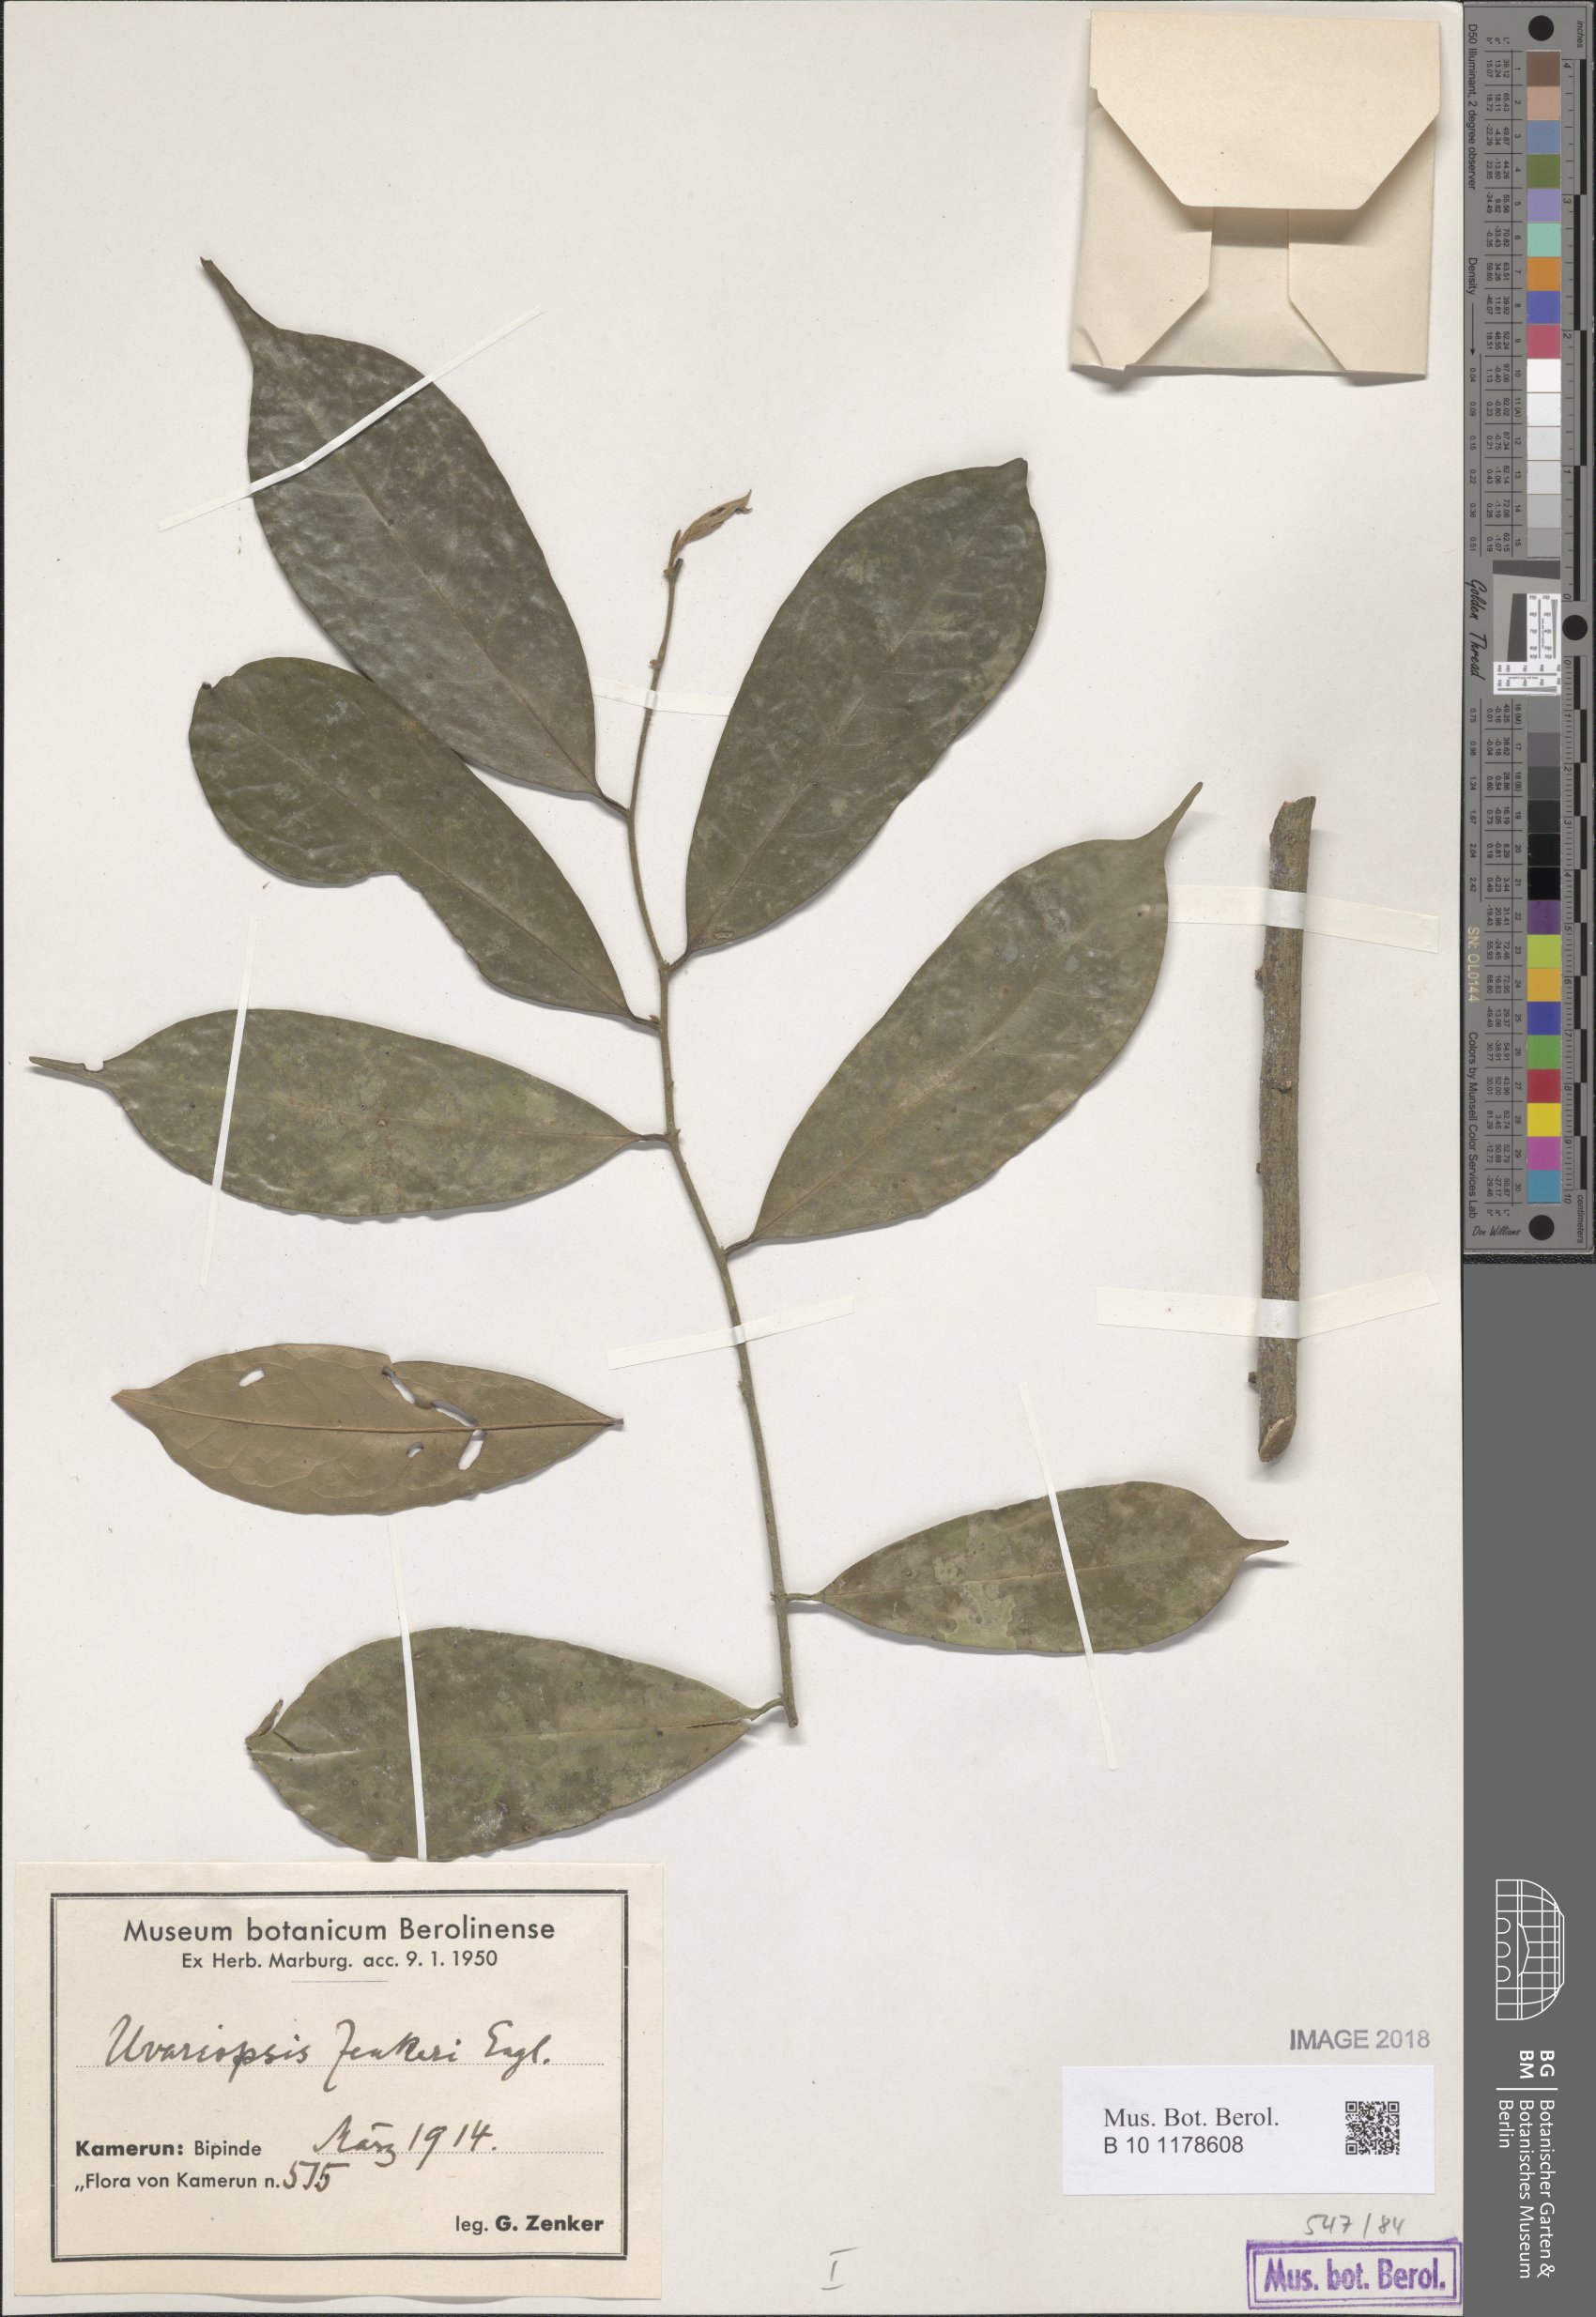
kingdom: Plantae
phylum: Tracheophyta
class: Magnoliopsida
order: Magnoliales
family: Annonaceae
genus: Uvariopsis
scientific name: Uvariopsis zenkeri
